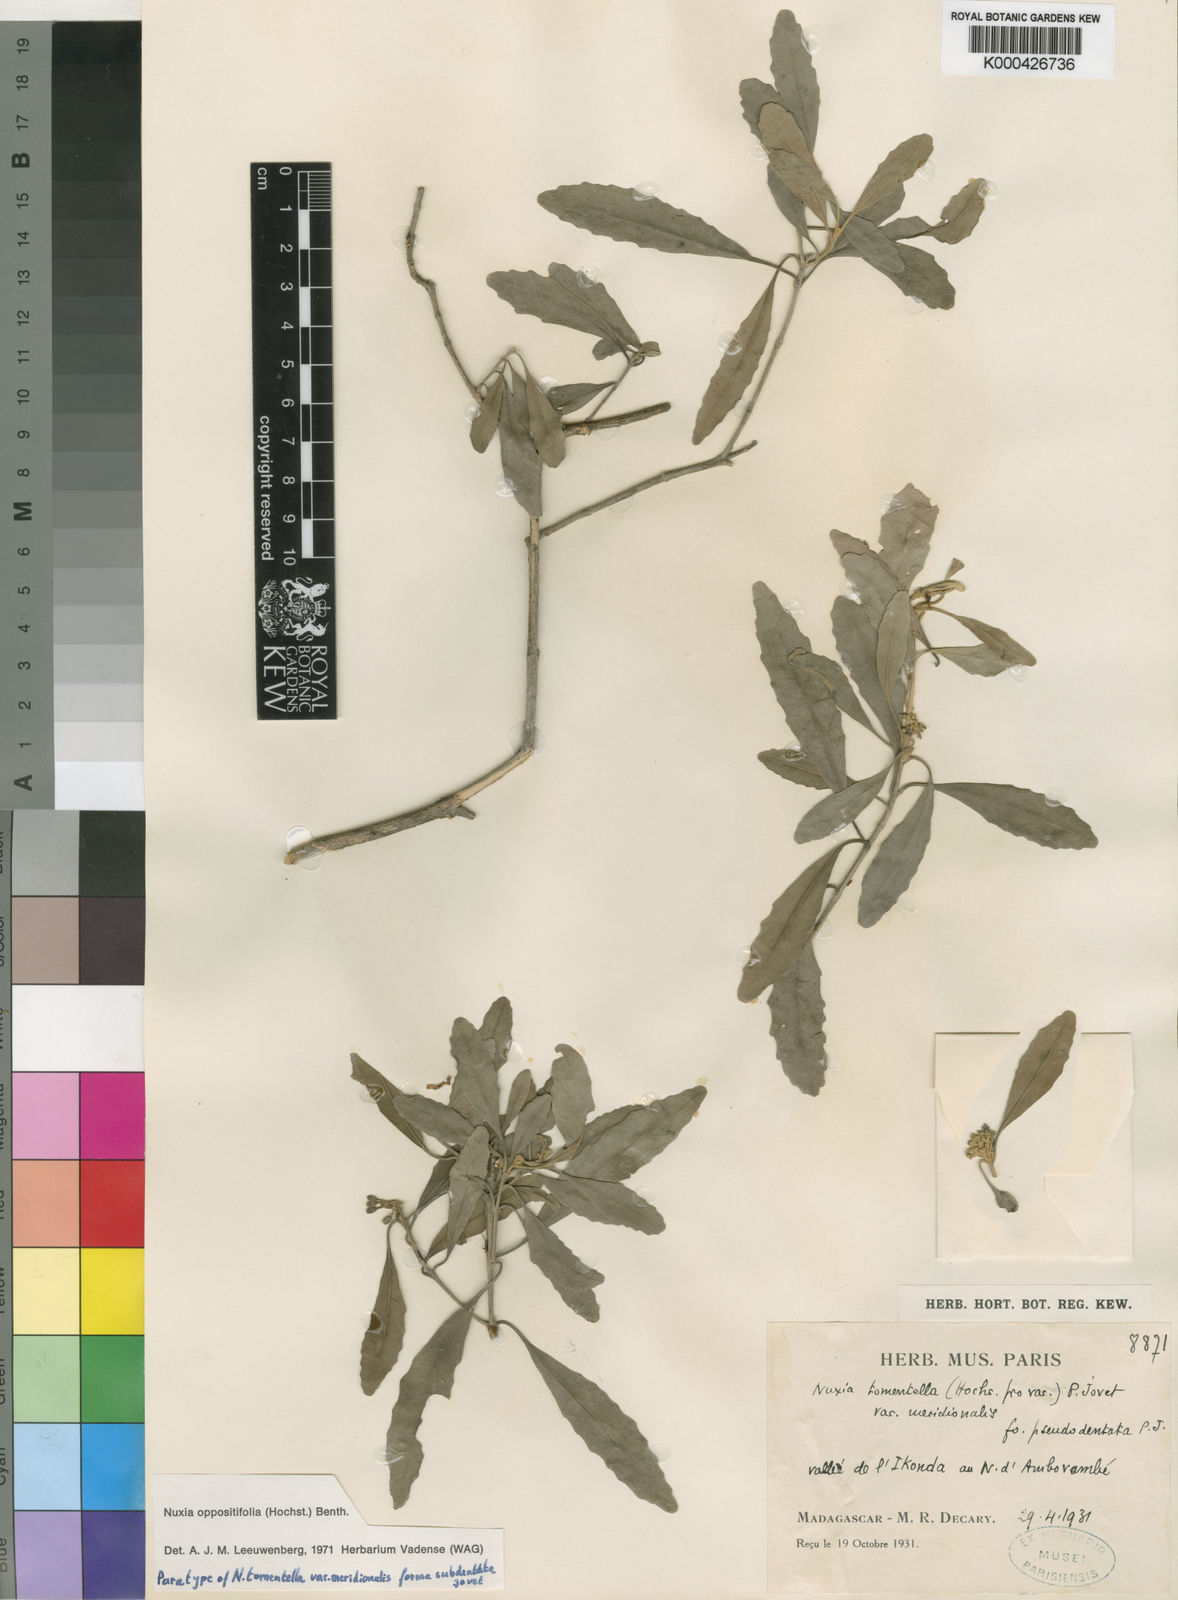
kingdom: Plantae
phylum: Tracheophyta
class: Magnoliopsida
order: Lamiales
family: Stilbaceae
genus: Nuxia
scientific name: Nuxia oppositifolia
